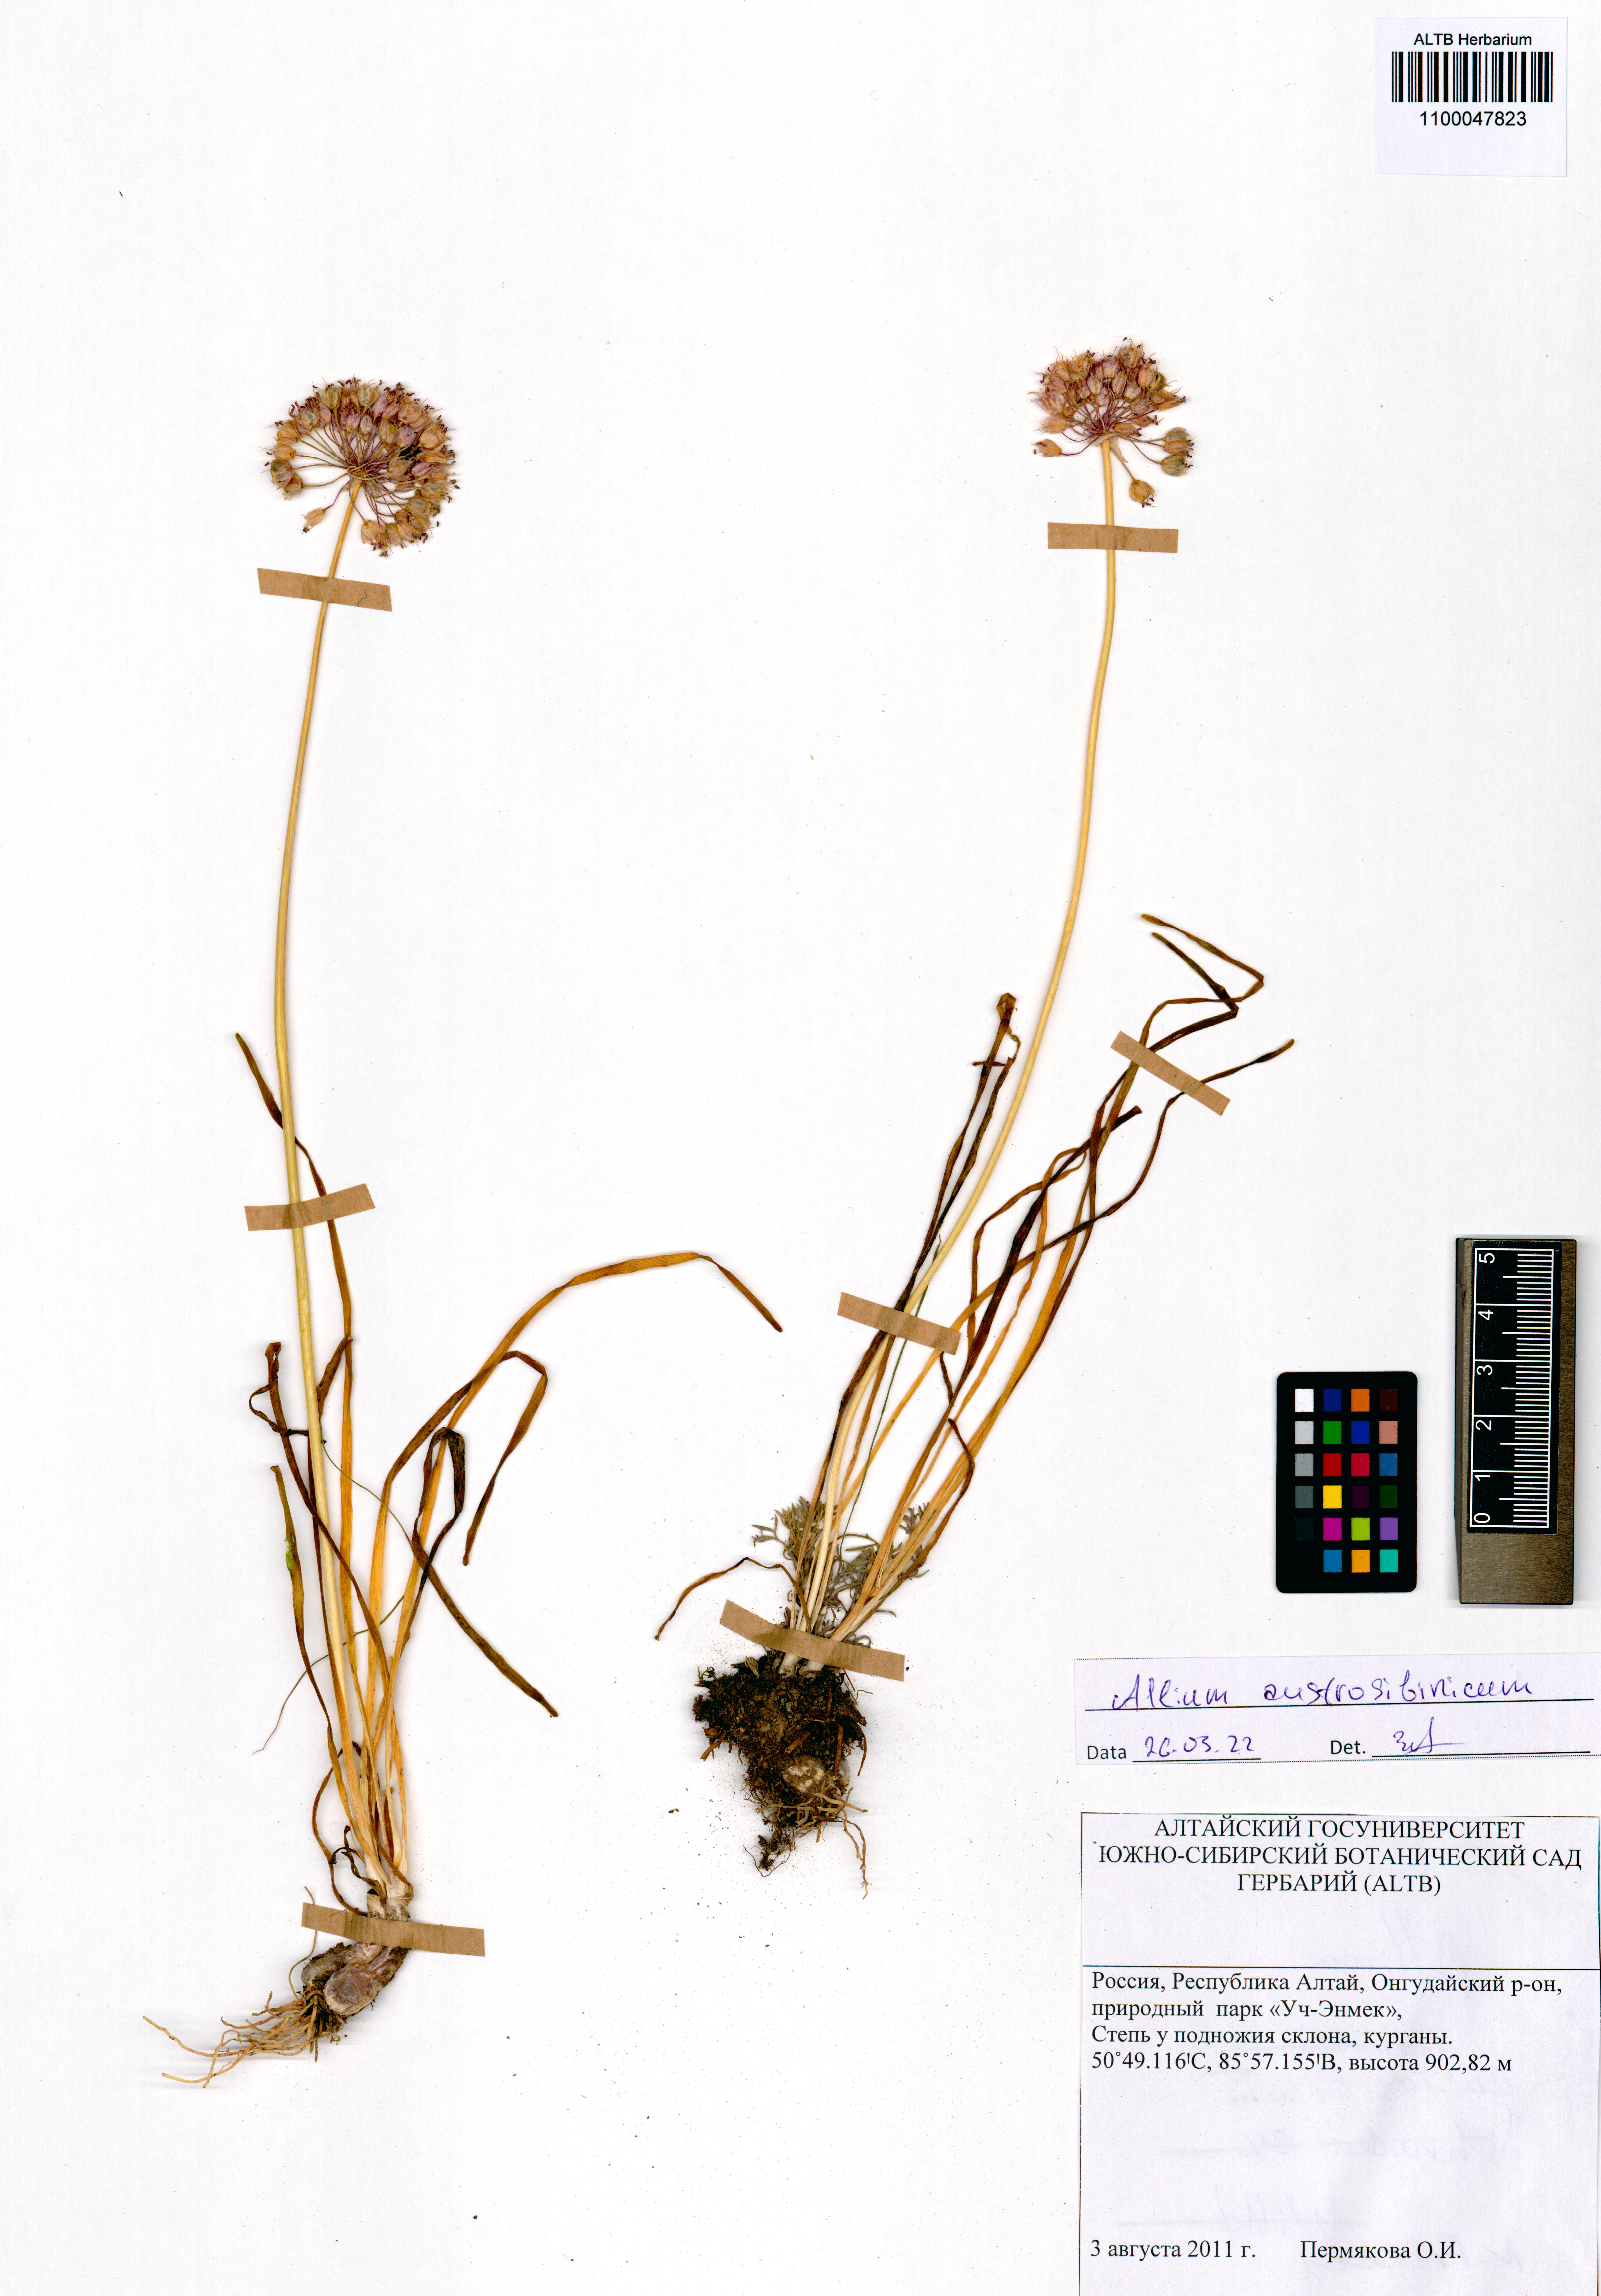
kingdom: Plantae
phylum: Tracheophyta
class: Liliopsida
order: Asparagales
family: Amaryllidaceae
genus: Allium
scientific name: Allium austrosibiricum
